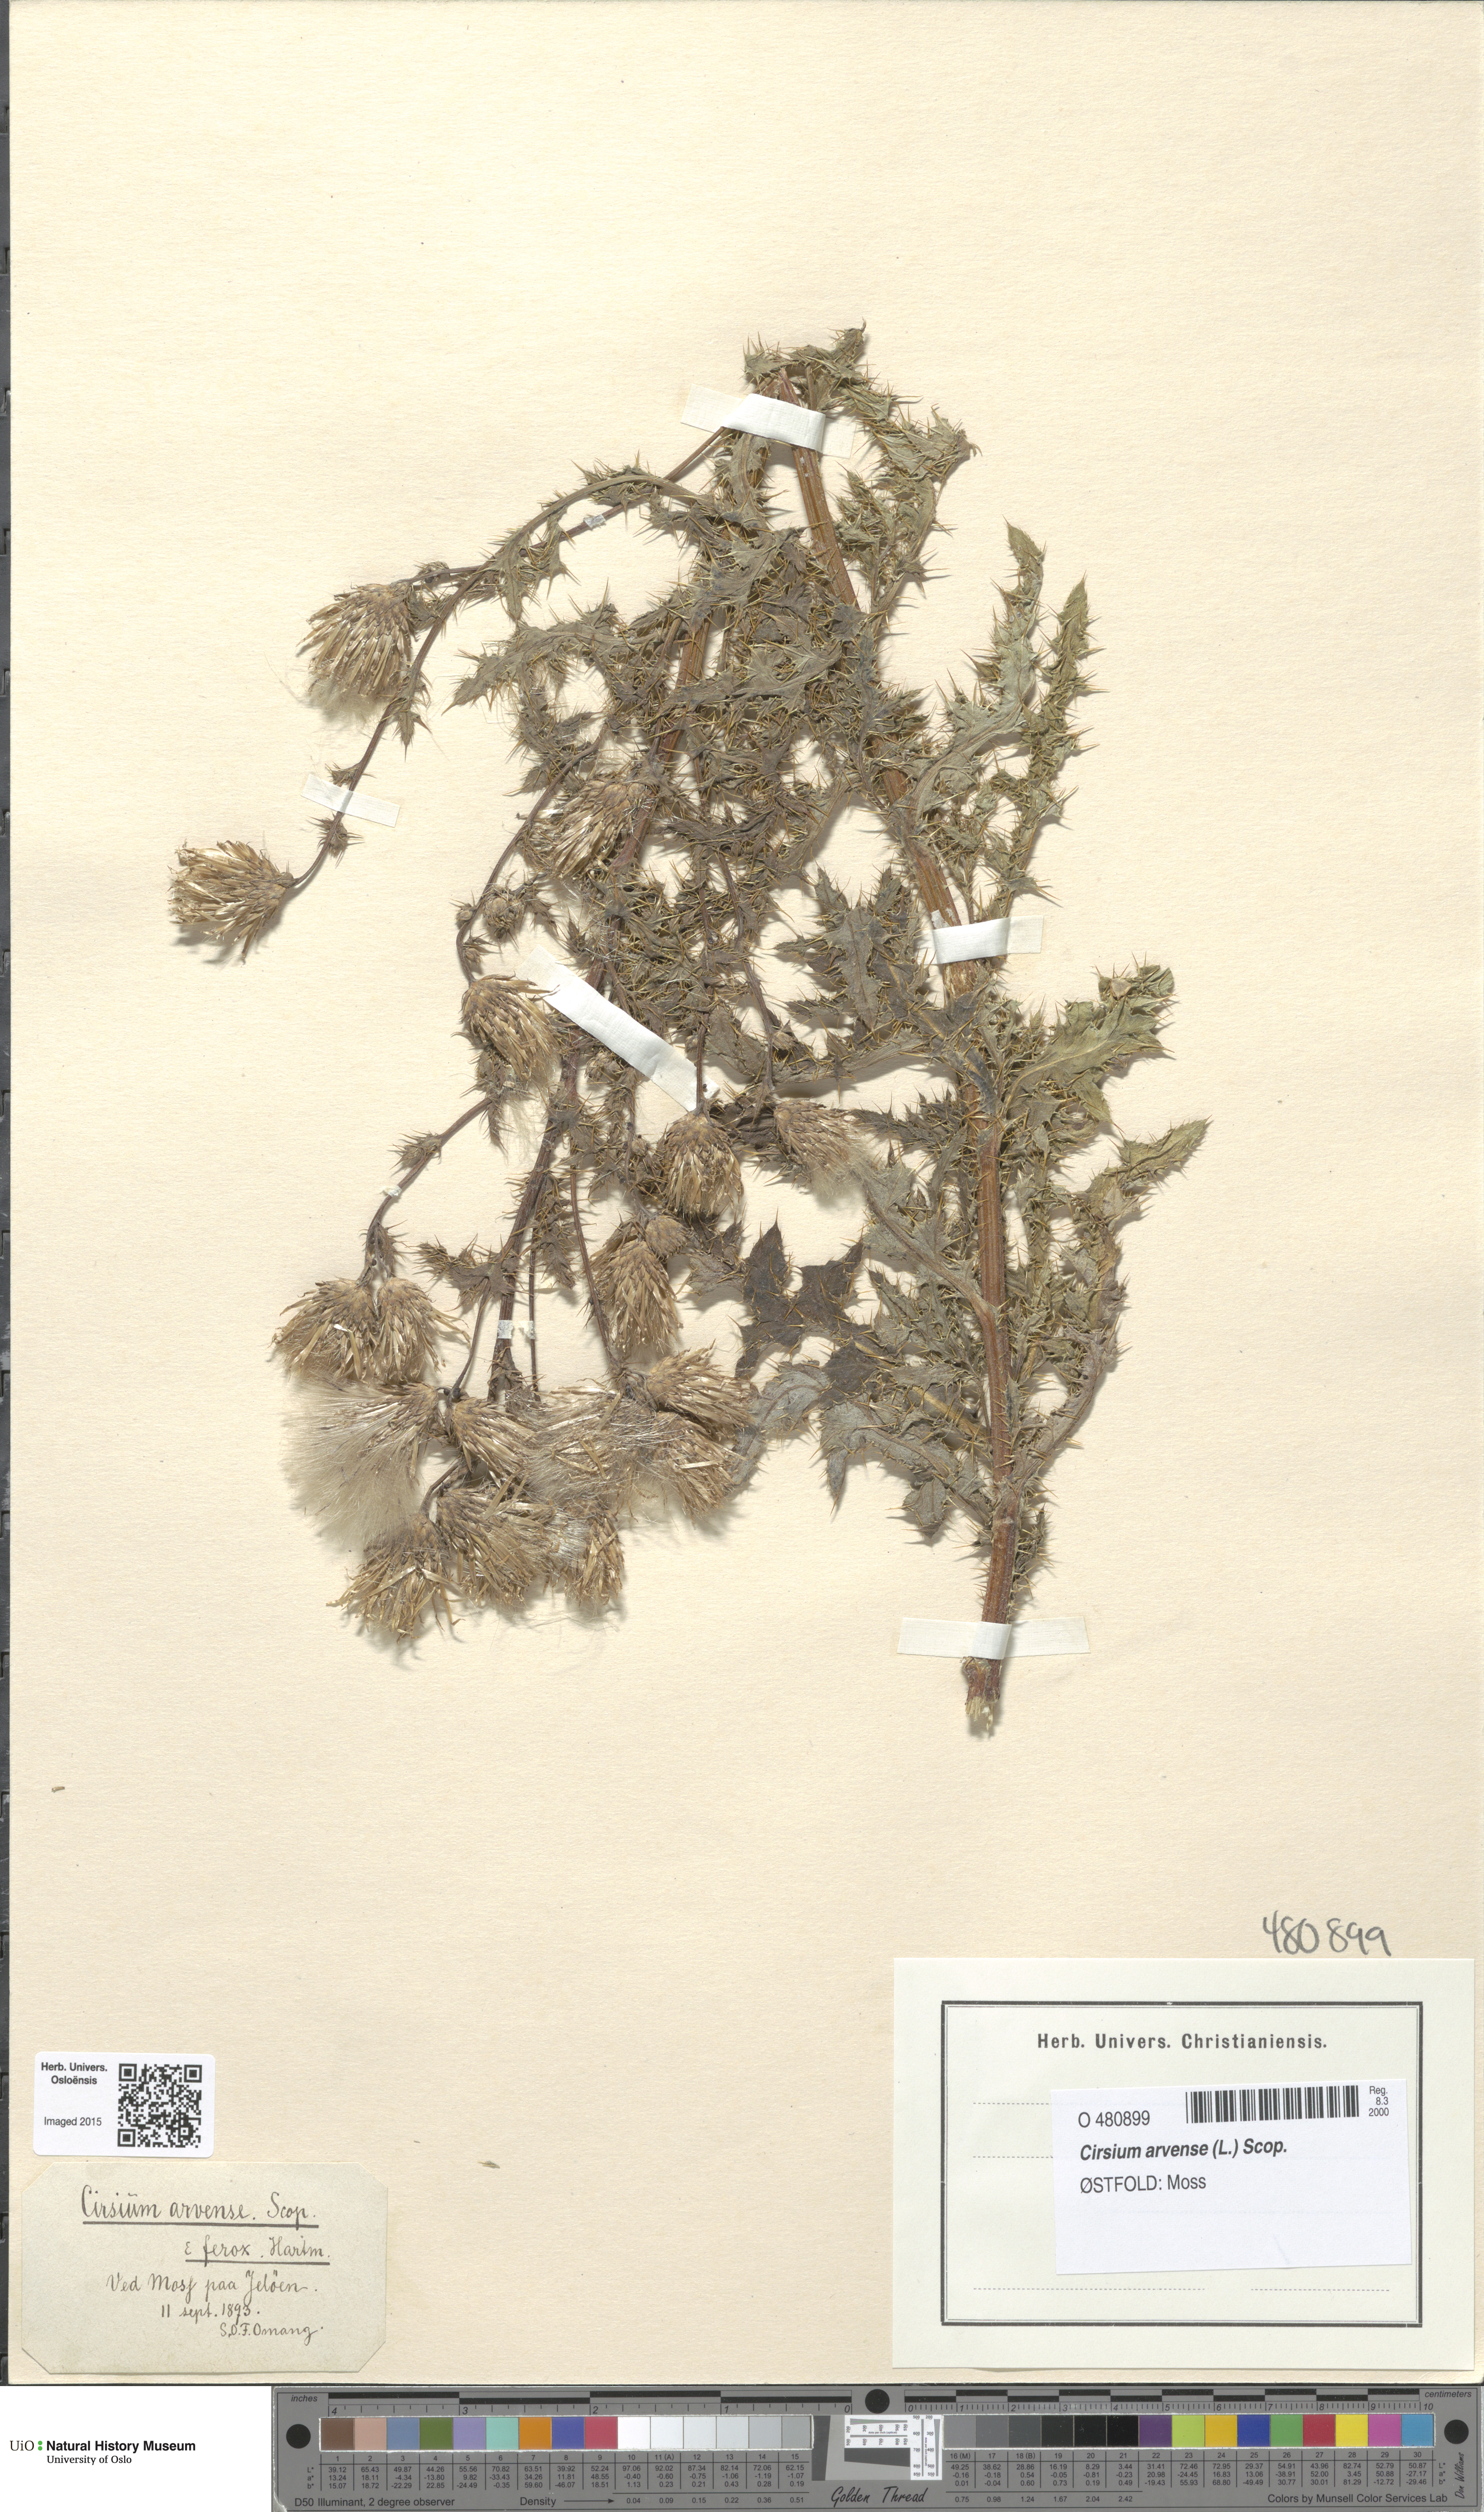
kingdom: Plantae
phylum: Tracheophyta
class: Magnoliopsida
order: Asterales
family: Asteraceae
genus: Cirsium
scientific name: Cirsium arvense
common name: Creeping thistle
